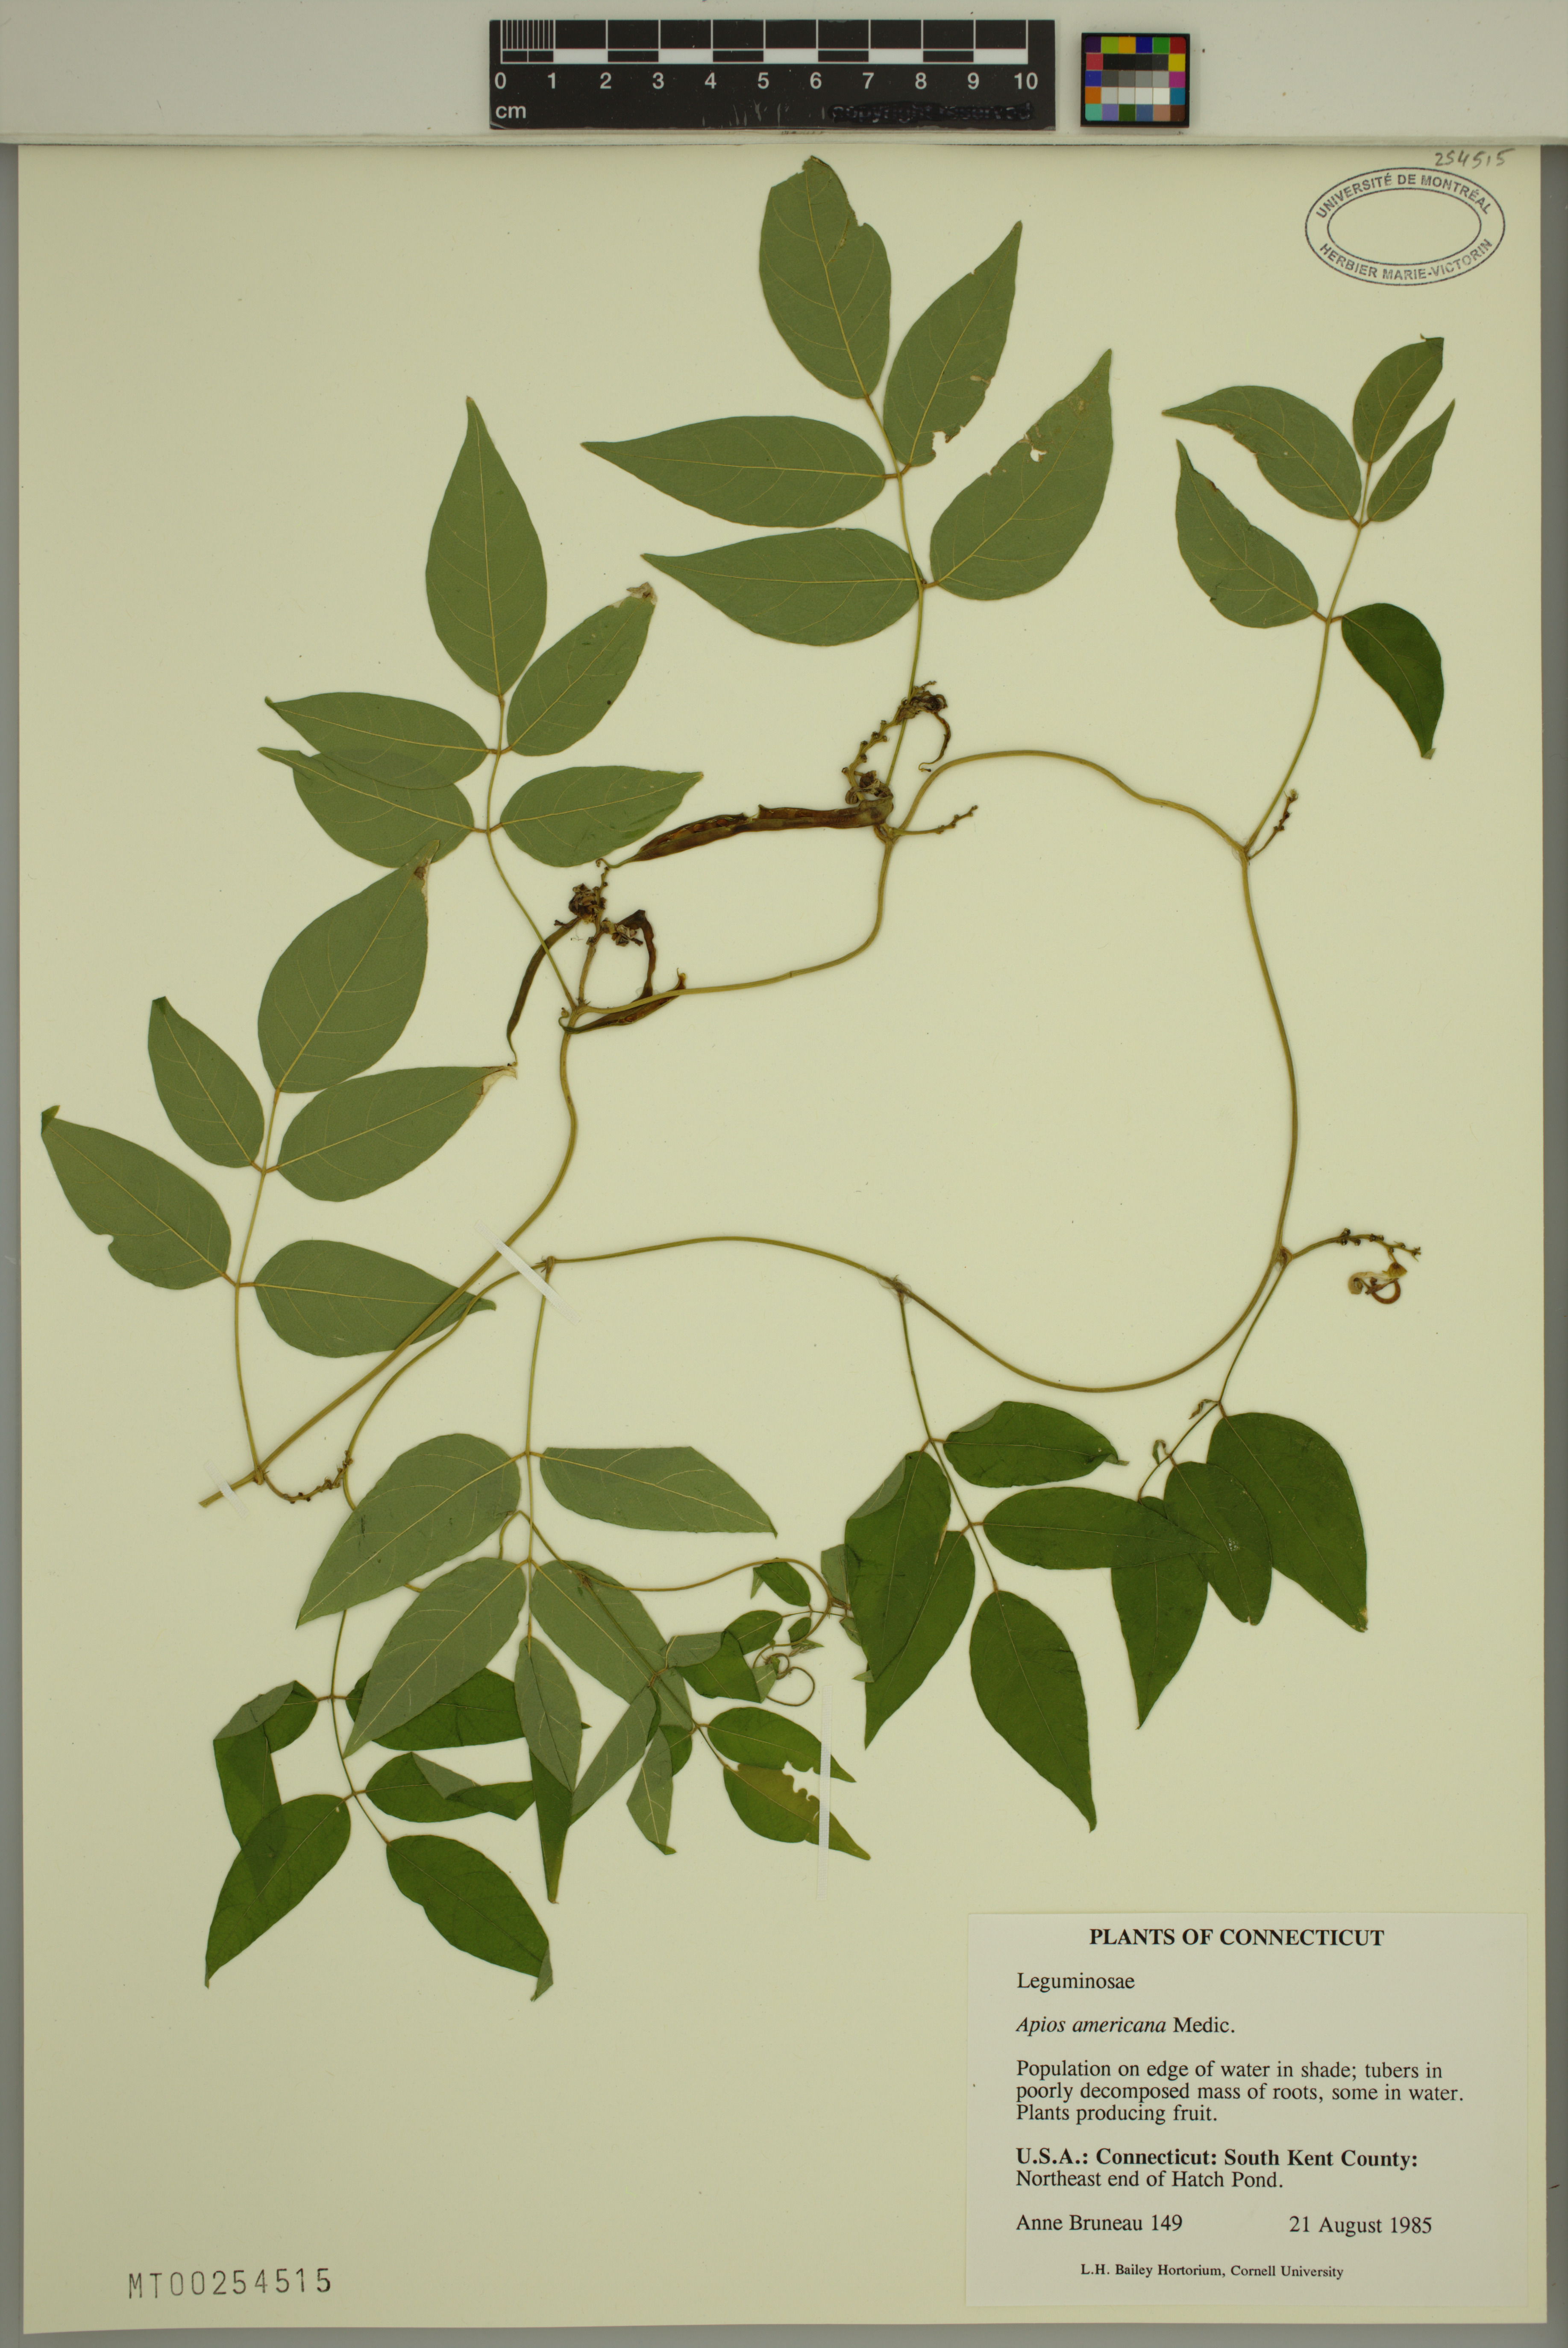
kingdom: Plantae
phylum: Tracheophyta
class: Magnoliopsida
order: Fabales
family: Fabaceae
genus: Apios
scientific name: Apios americana
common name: American potato-bean
